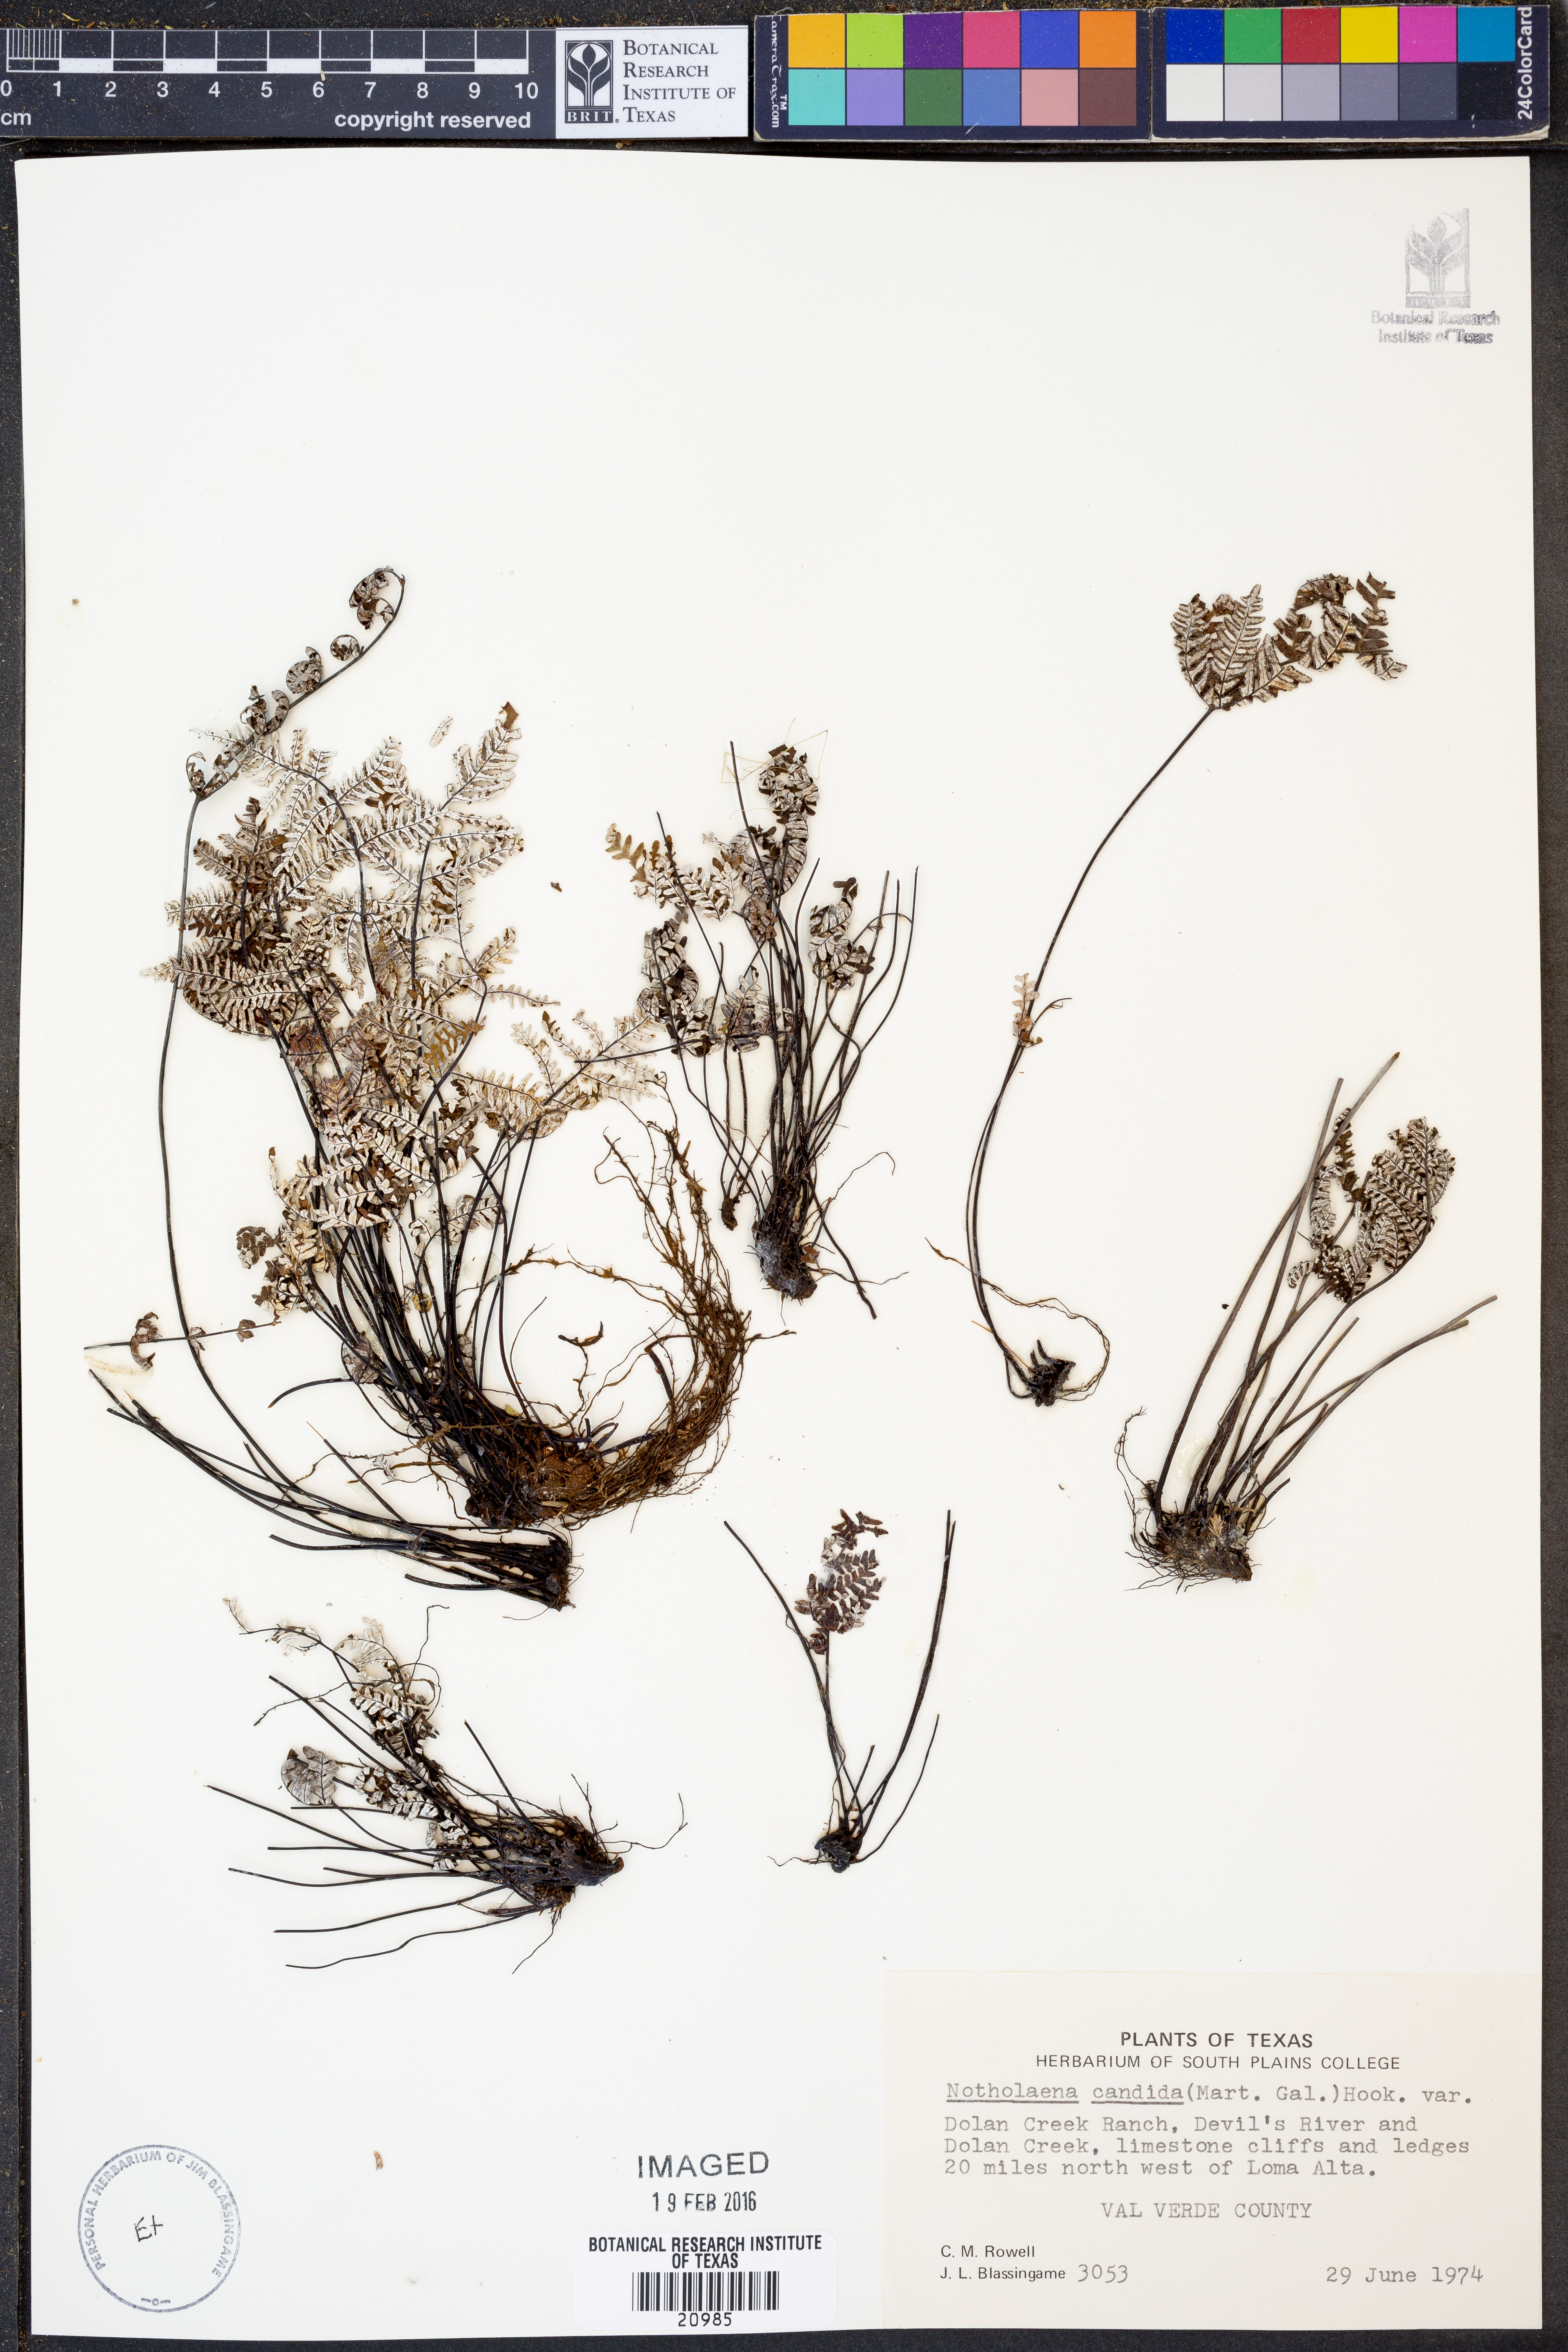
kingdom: Plantae
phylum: Tracheophyta
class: Polypodiopsida
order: Polypodiales
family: Pteridaceae
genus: Notholaena
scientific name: Notholaena candida
